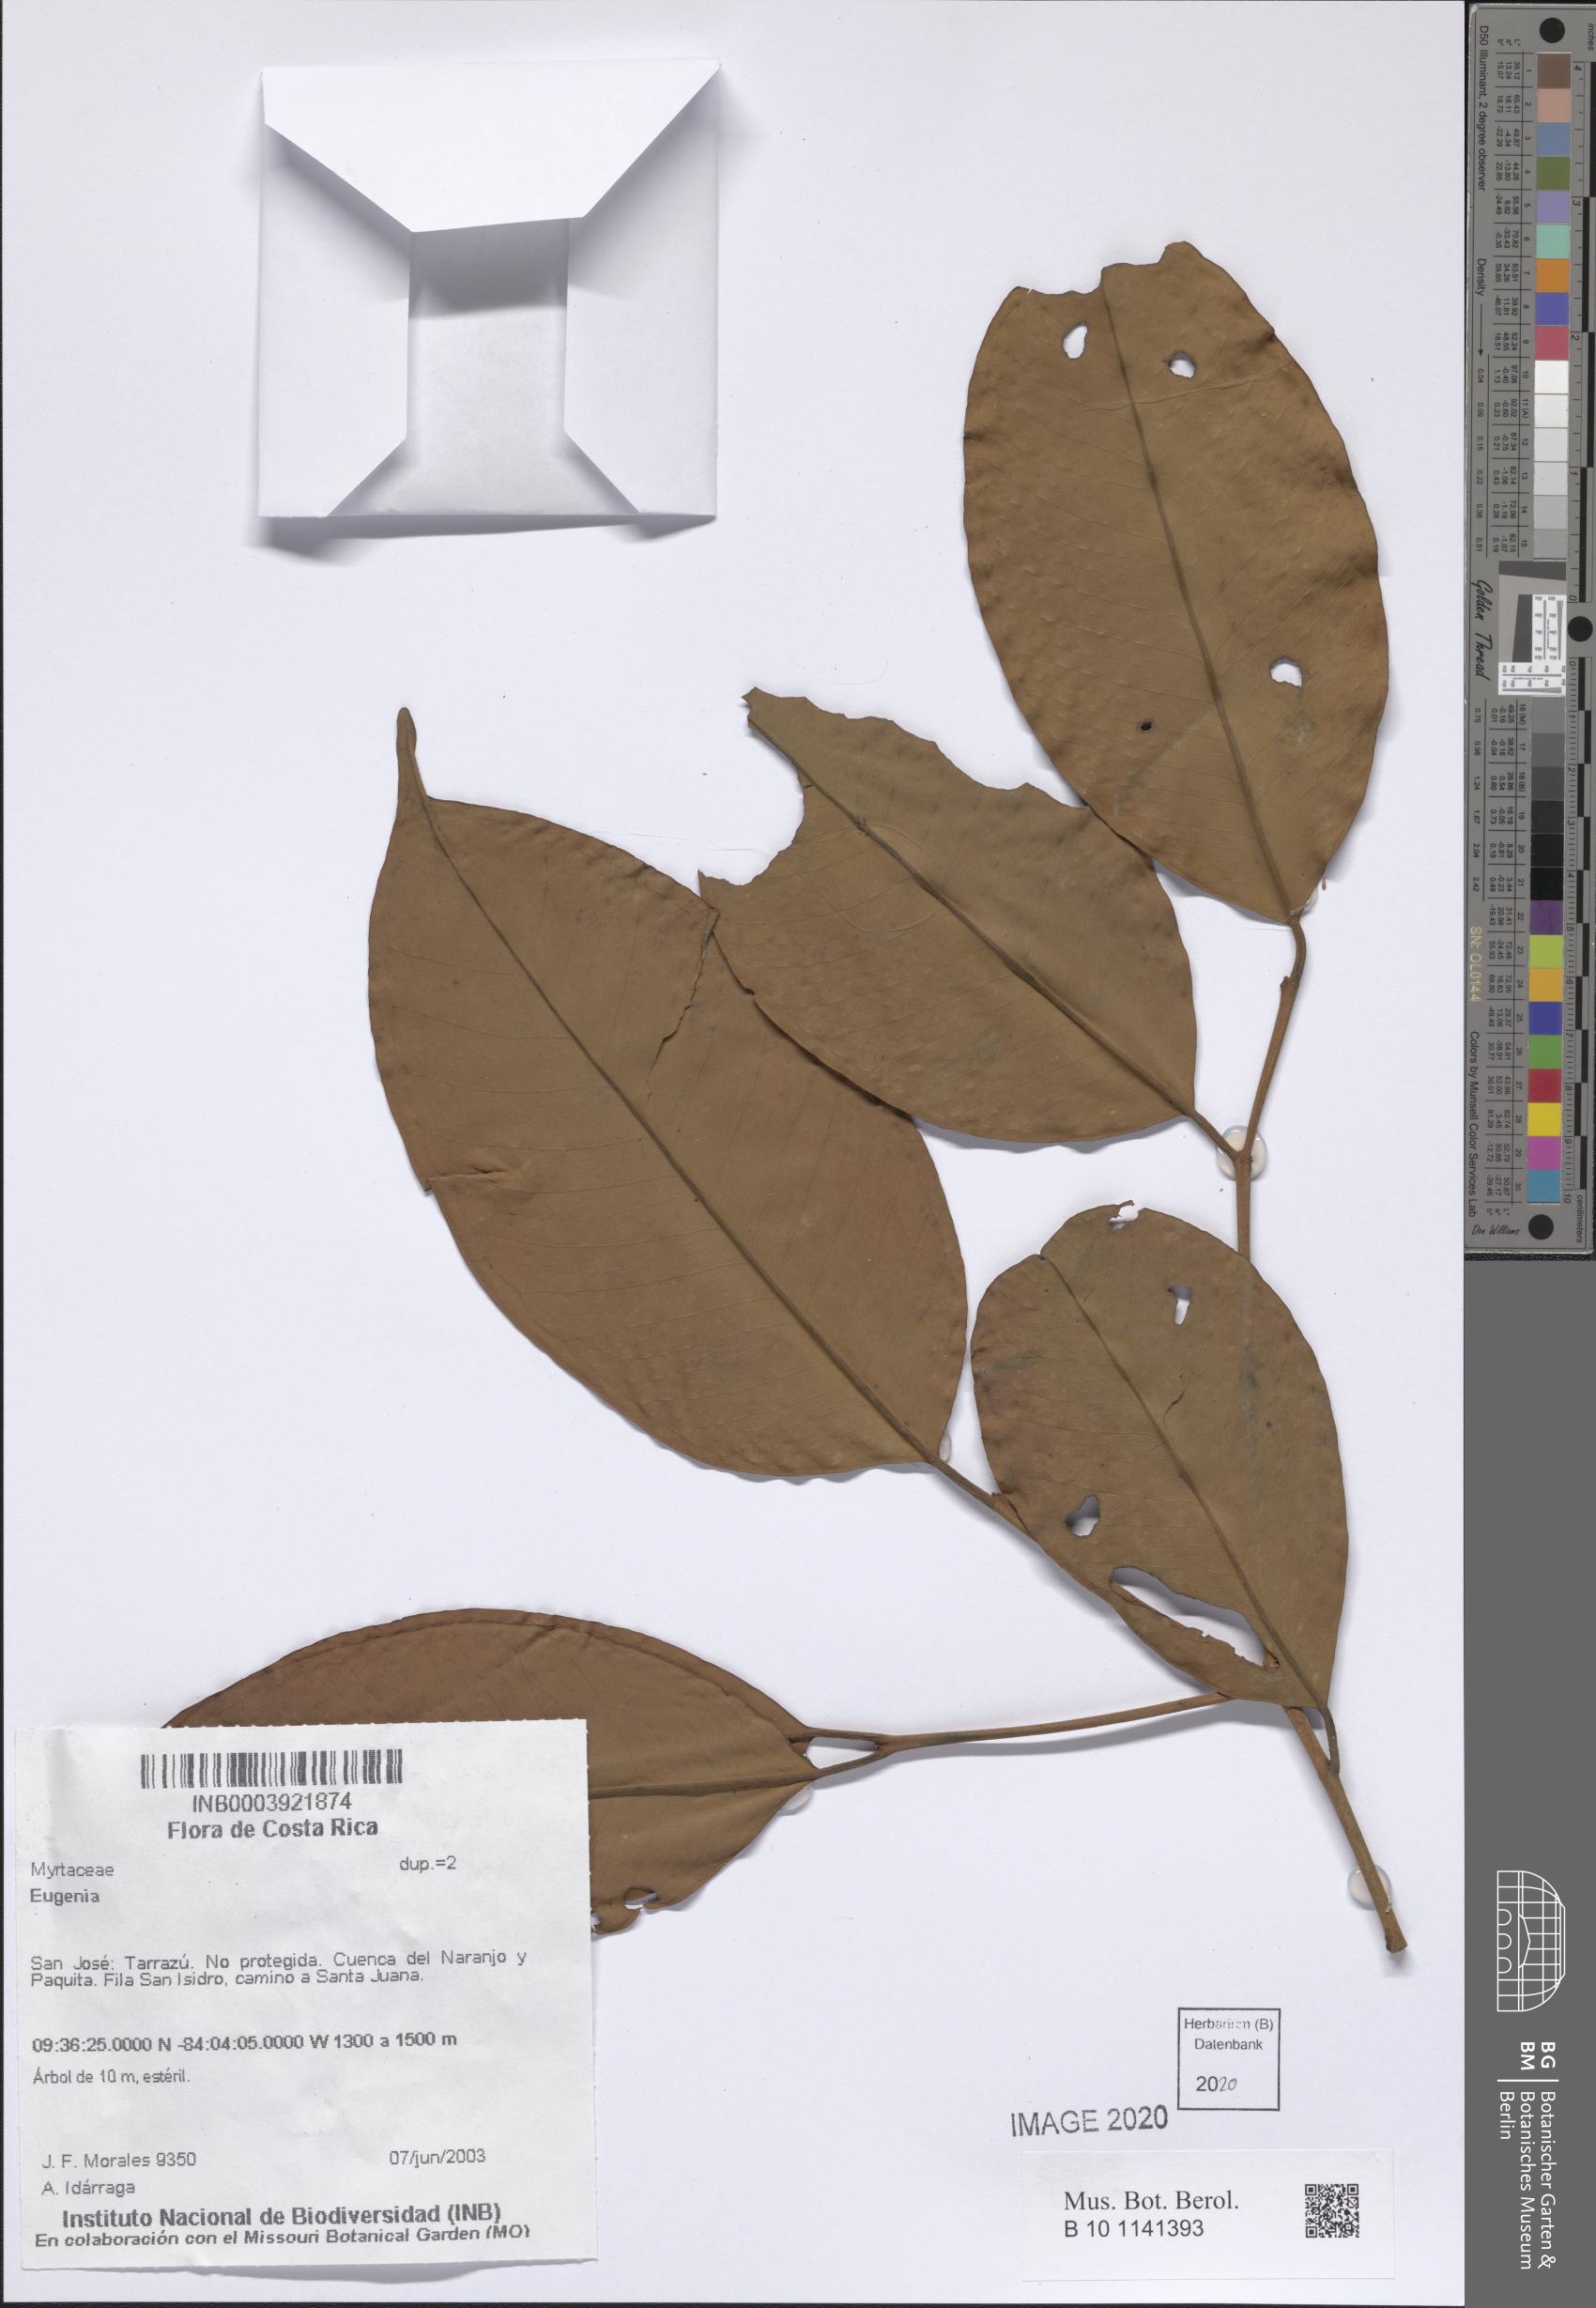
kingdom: Plantae
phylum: Tracheophyta
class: Magnoliopsida
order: Myrtales
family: Myrtaceae
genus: Eugenia
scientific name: Eugenia
